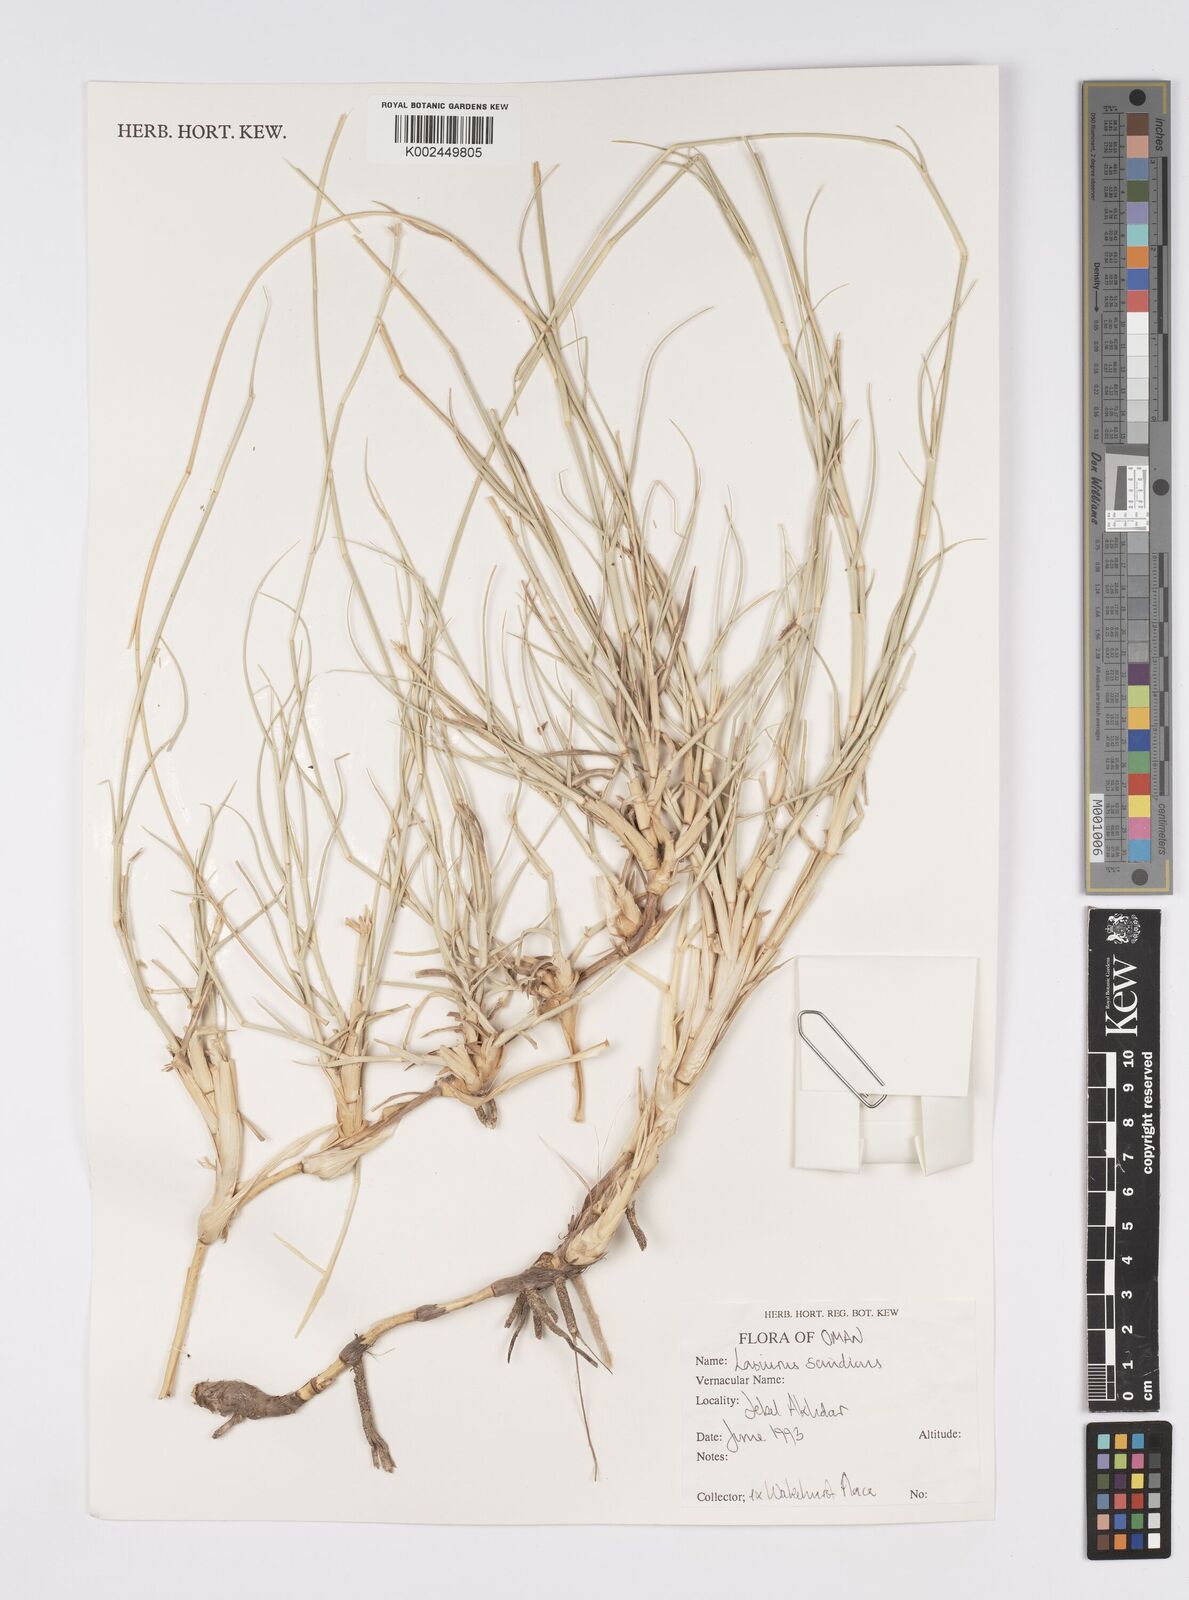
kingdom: Plantae
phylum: Tracheophyta
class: Liliopsida
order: Poales
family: Poaceae
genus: Lasiurus
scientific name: Lasiurus scindicus
